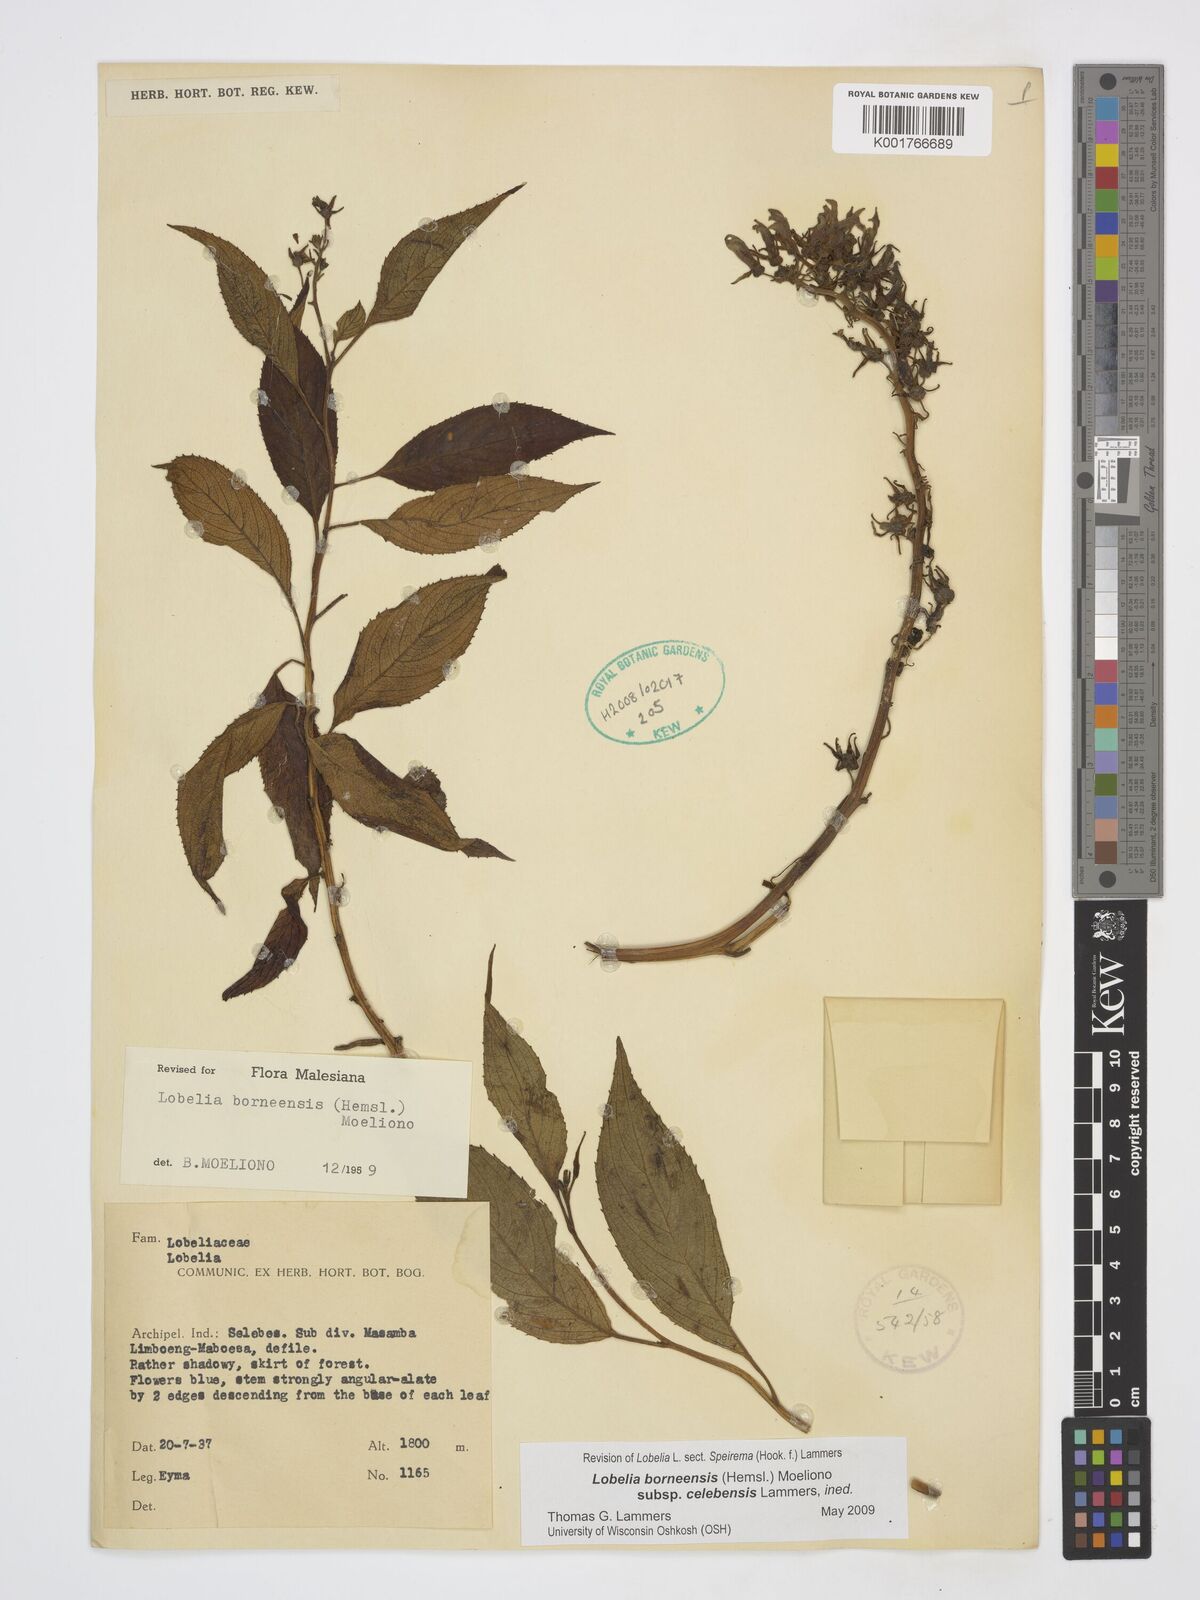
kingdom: Plantae
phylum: Tracheophyta
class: Magnoliopsida
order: Asterales
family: Campanulaceae
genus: Lobelia
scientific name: Lobelia borneensis
